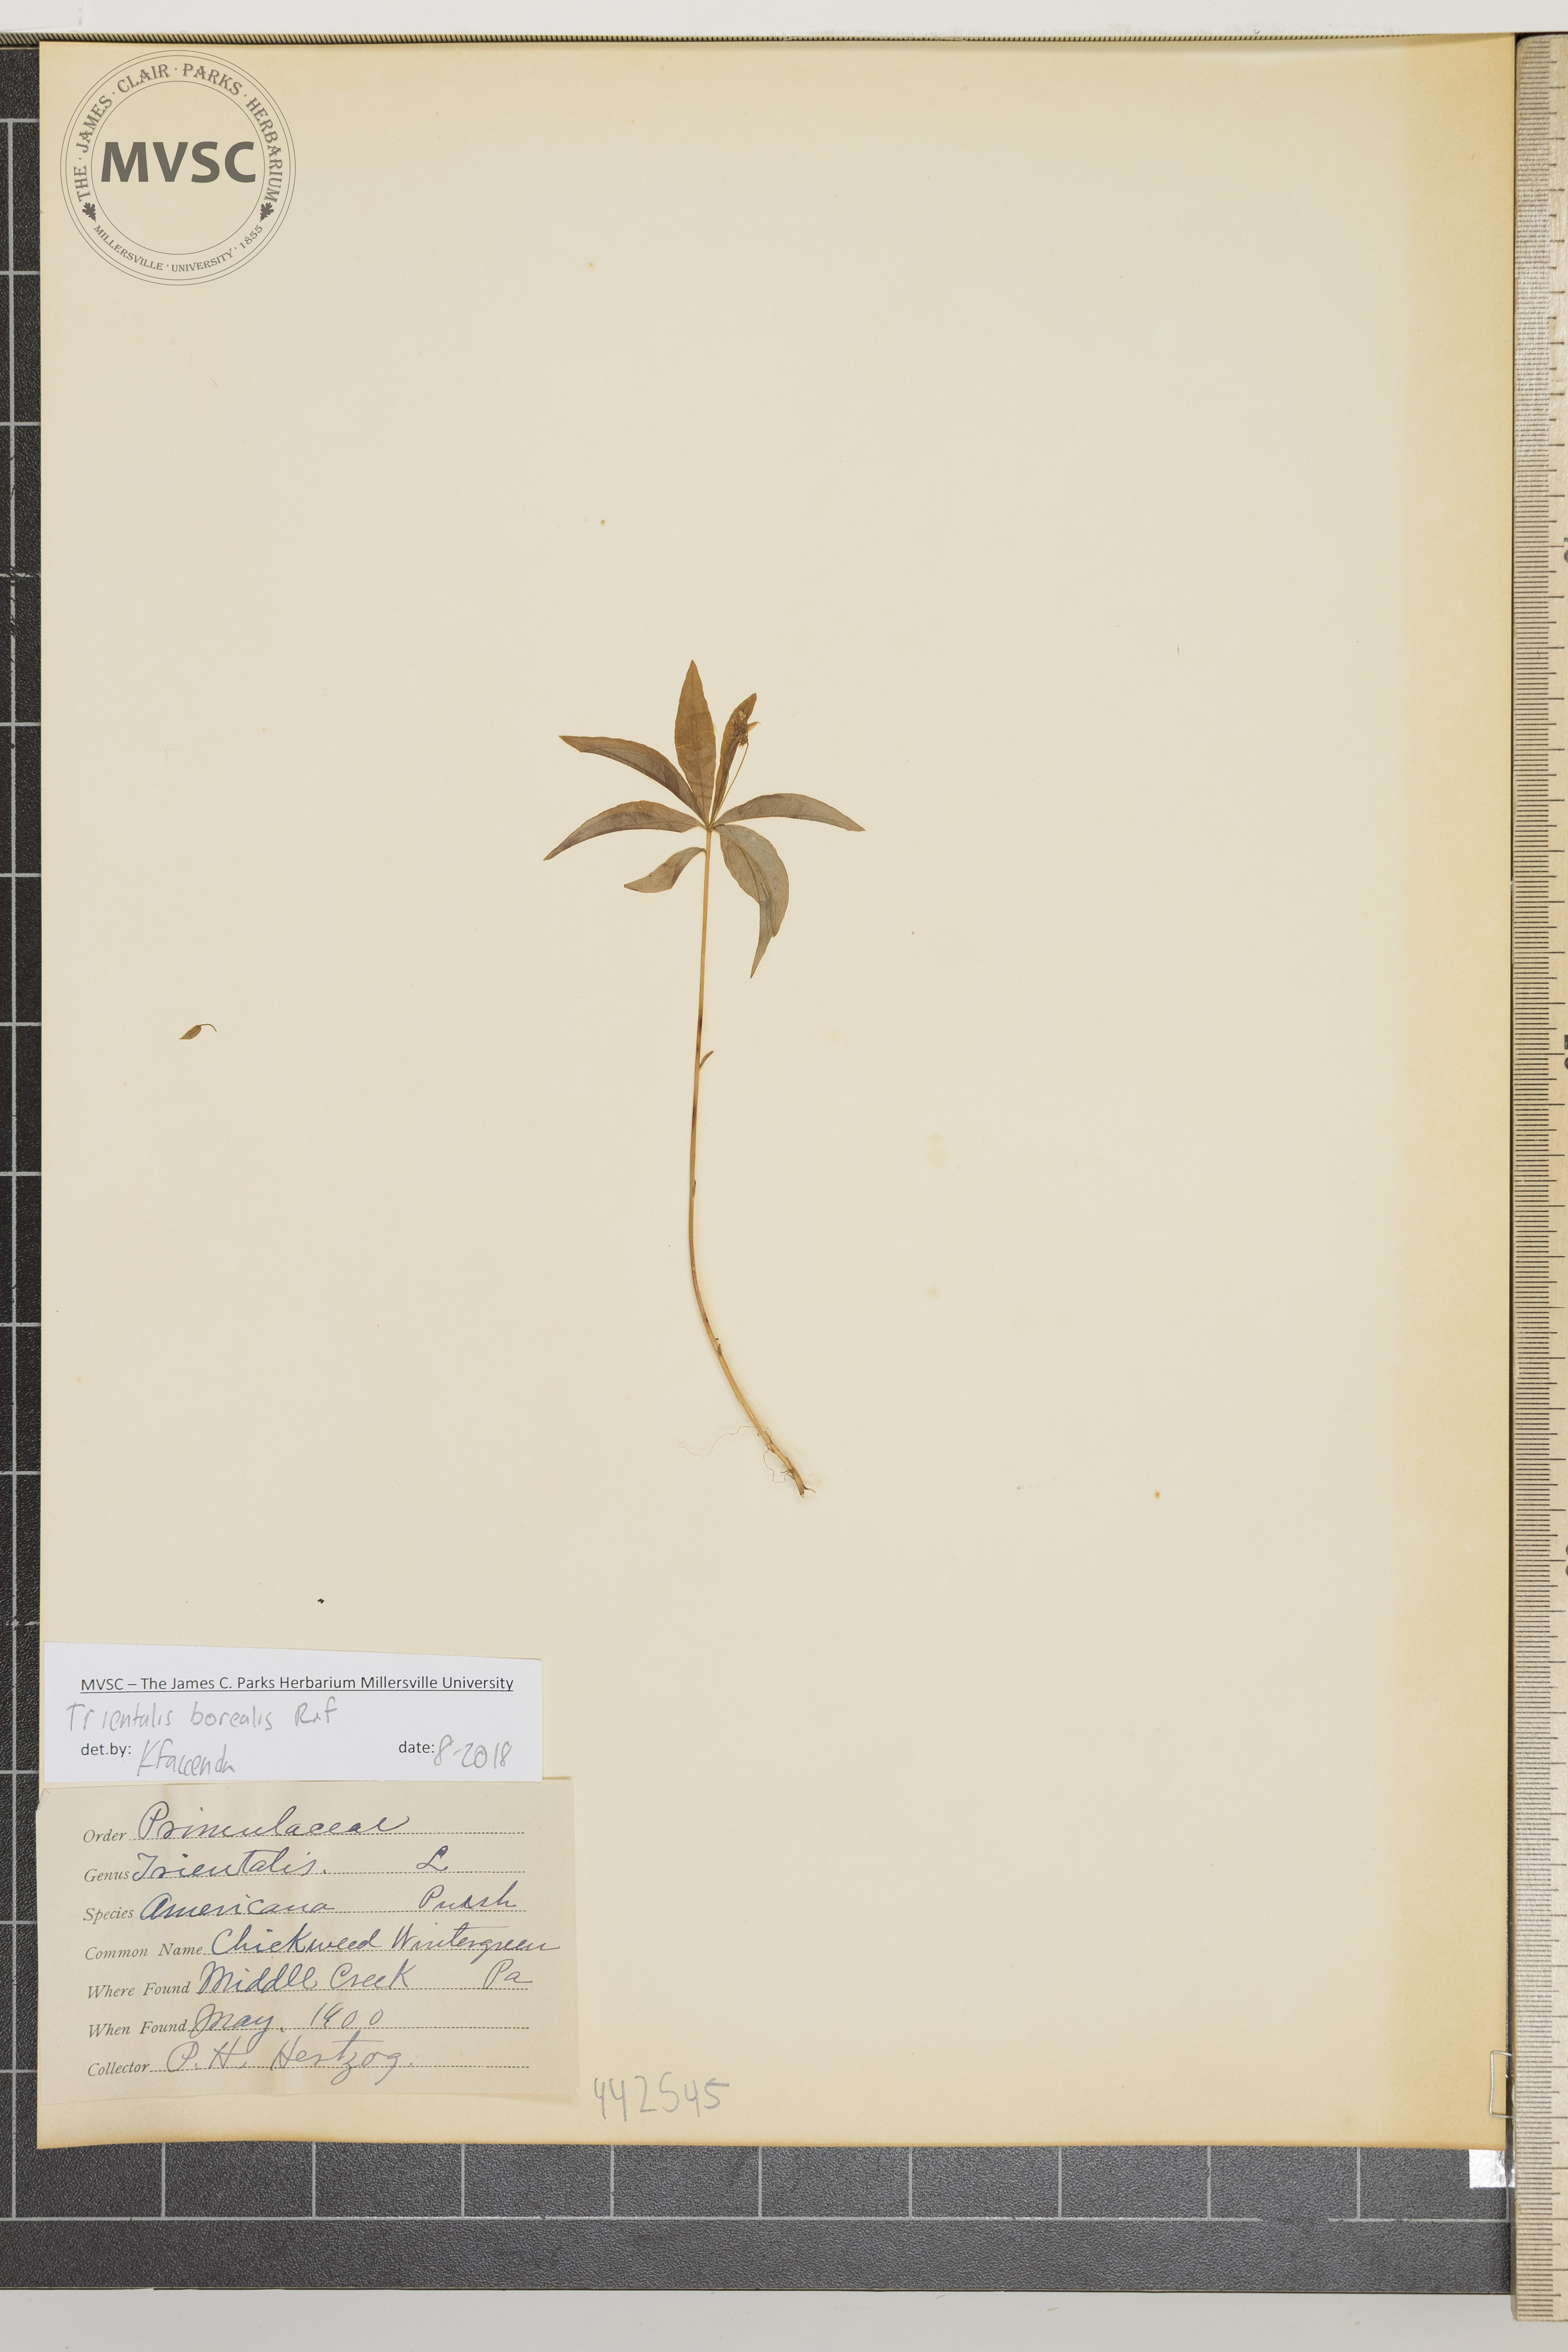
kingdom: Plantae
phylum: Tracheophyta
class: Magnoliopsida
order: Ericales
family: Primulaceae
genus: Lysimachia
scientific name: Lysimachia borealis
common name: Chickweed wintergreen
